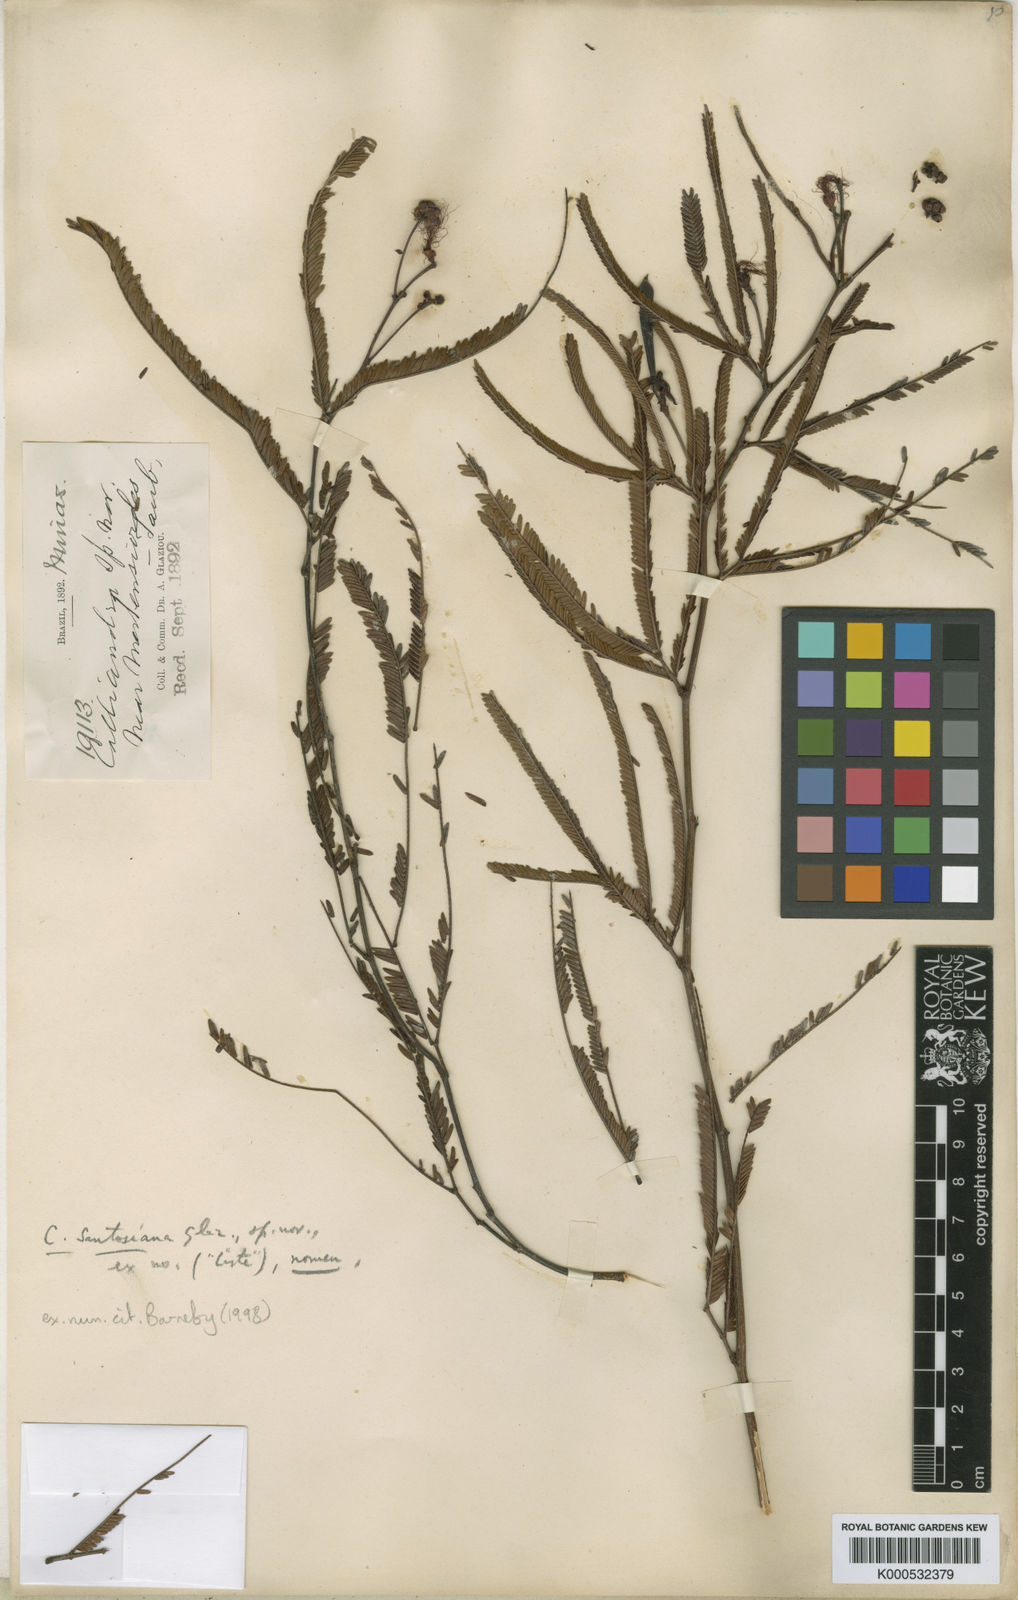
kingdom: Plantae
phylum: Tracheophyta
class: Magnoliopsida
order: Fabales
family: Fabaceae
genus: Calliandra
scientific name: Calliandra
